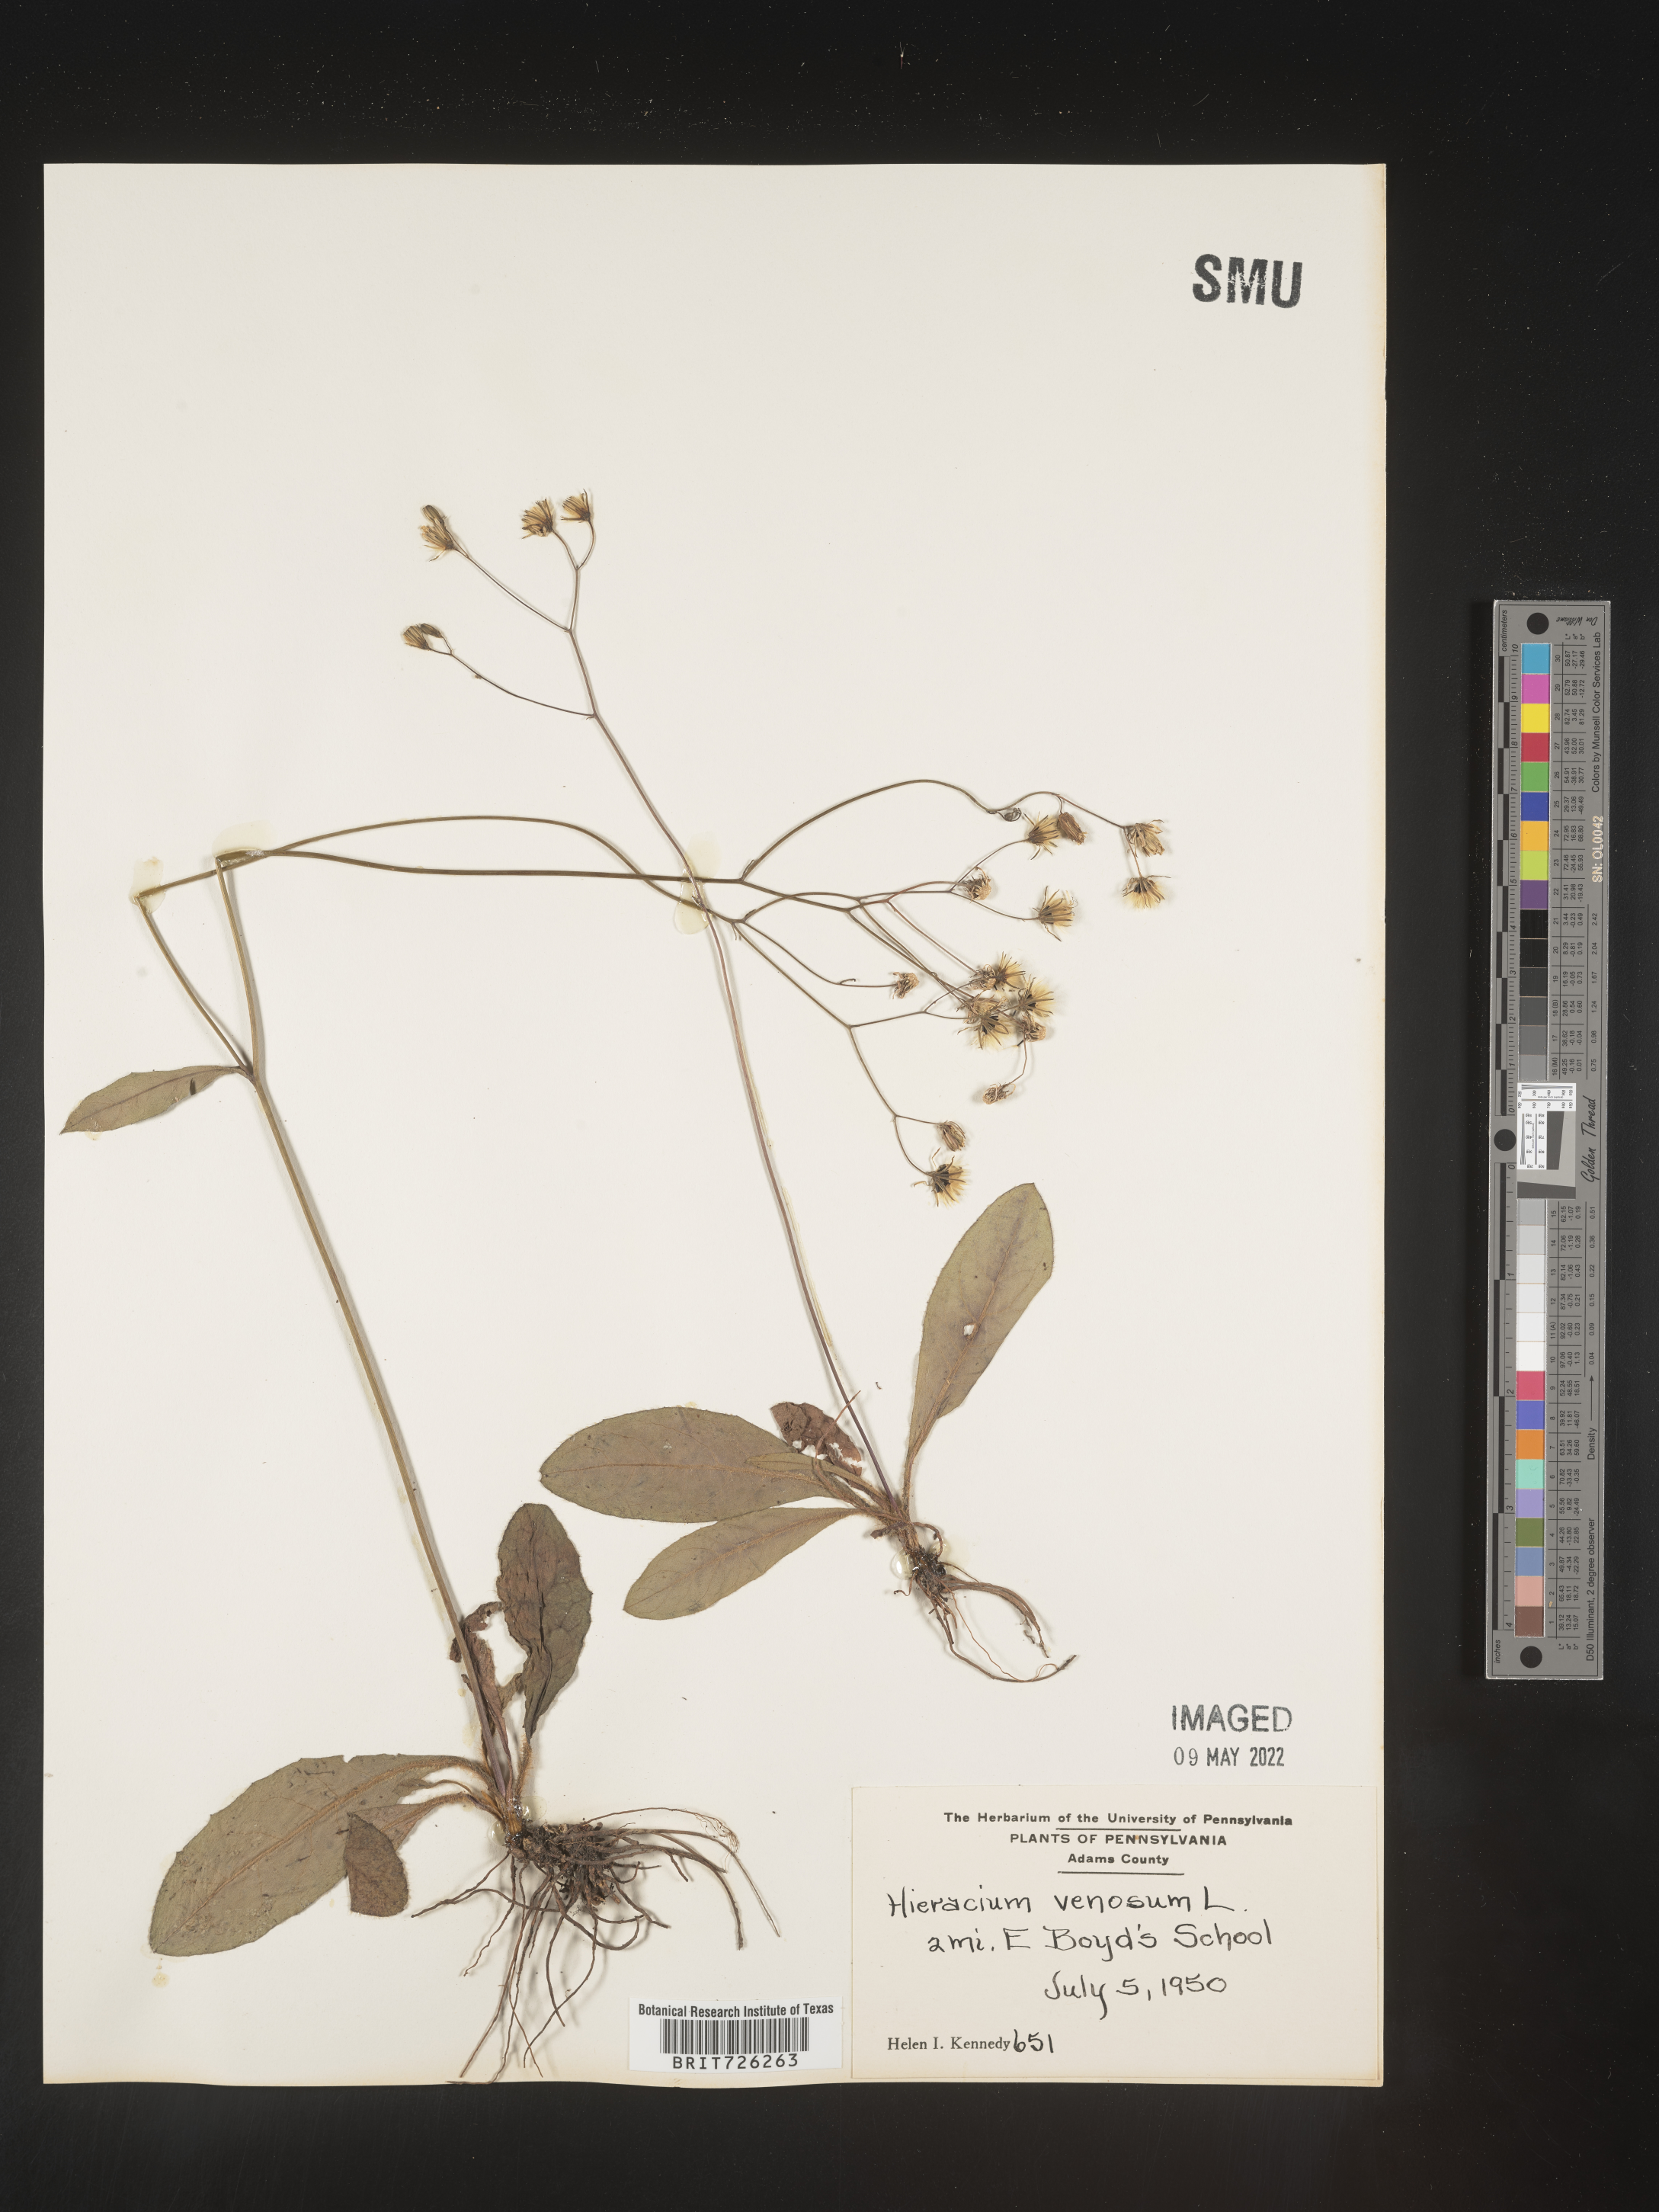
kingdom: Plantae
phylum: Tracheophyta
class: Magnoliopsida
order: Asterales
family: Asteraceae
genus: Hieracium
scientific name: Hieracium
